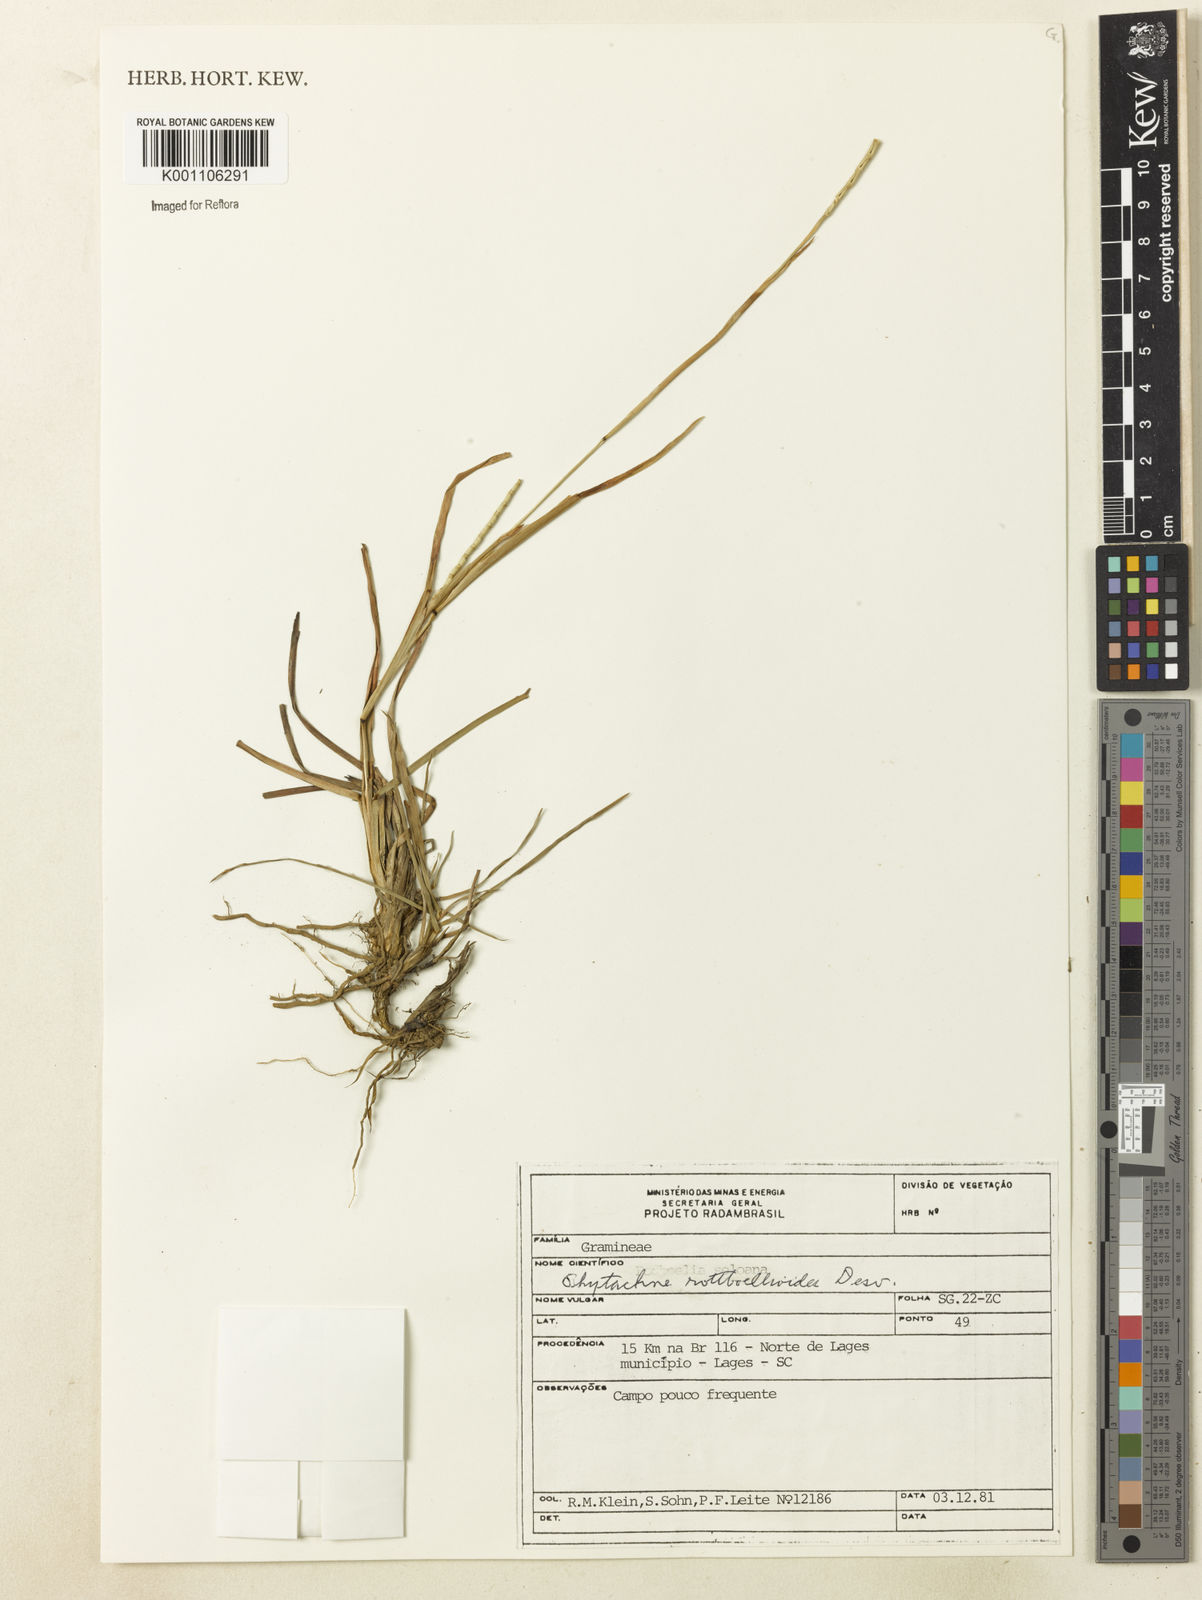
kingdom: Plantae
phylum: Tracheophyta
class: Liliopsida
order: Poales
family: Poaceae
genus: Rhytachne
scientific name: Rhytachne rottboellioides
